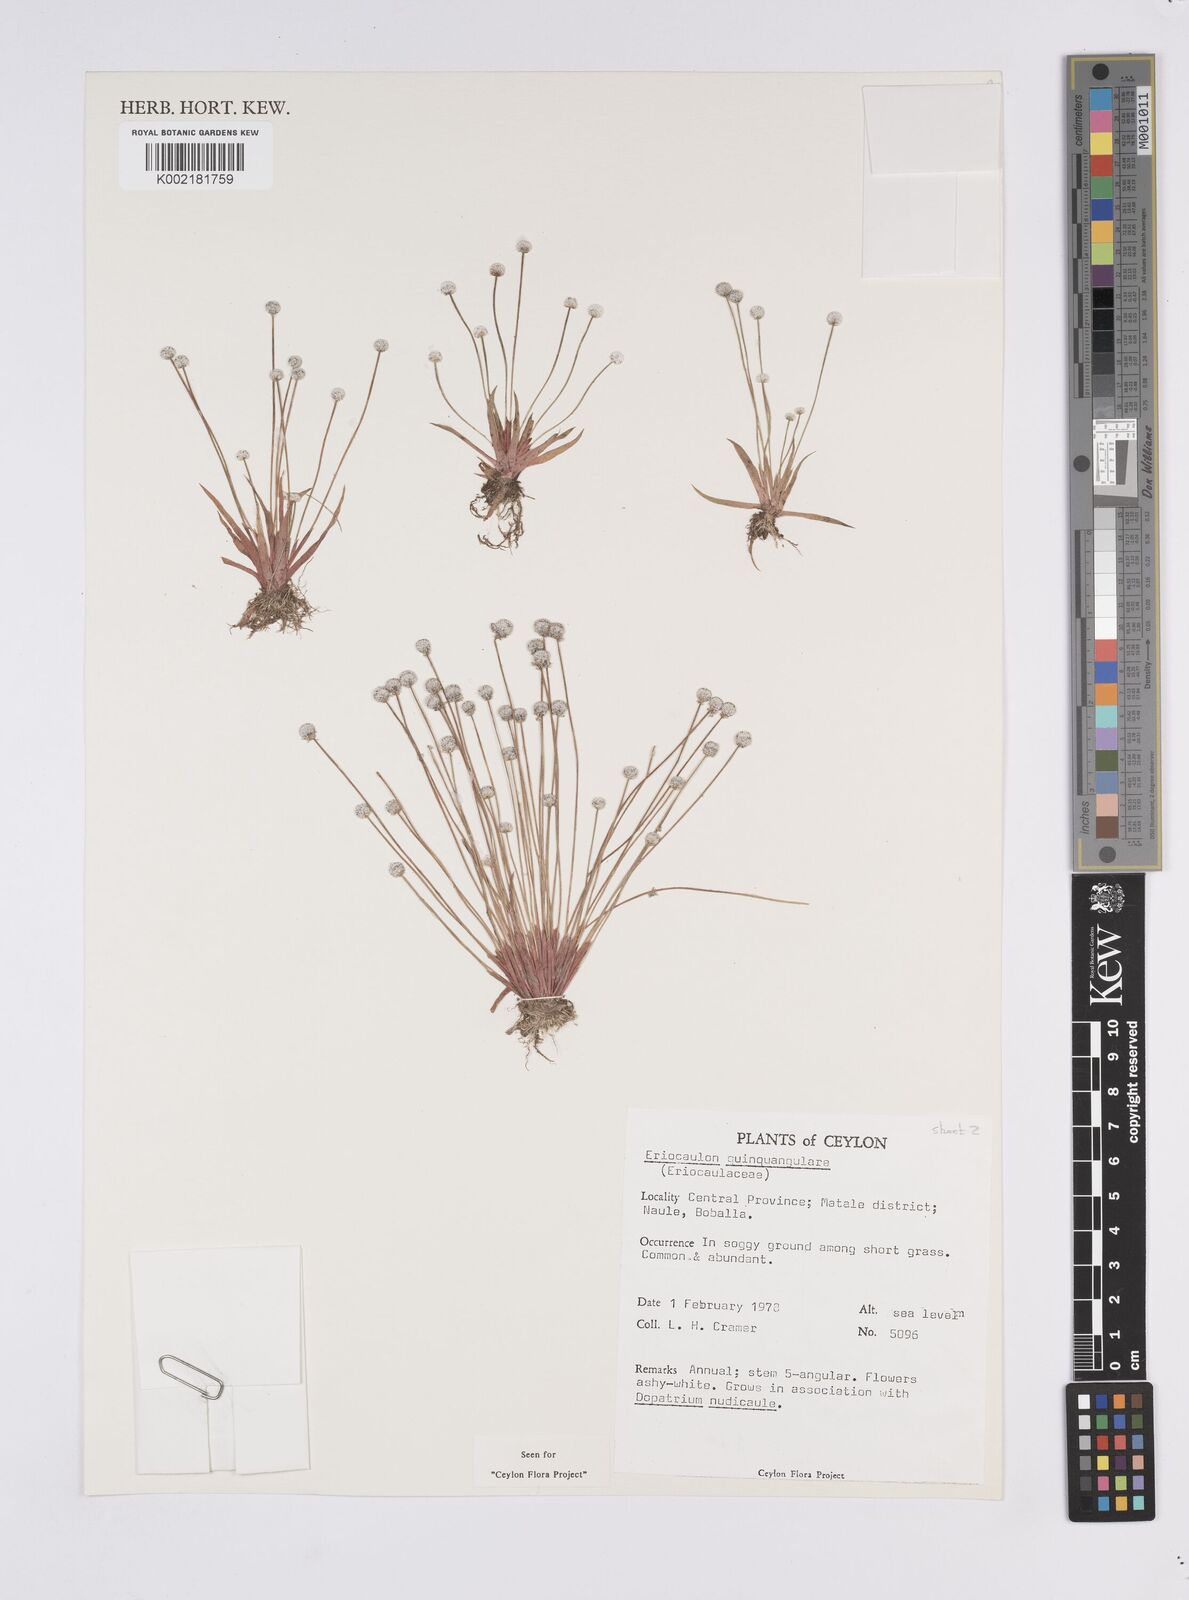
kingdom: Plantae
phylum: Tracheophyta
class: Liliopsida
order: Poales
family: Eriocaulaceae
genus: Eriocaulon
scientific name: Eriocaulon quinquangulare
